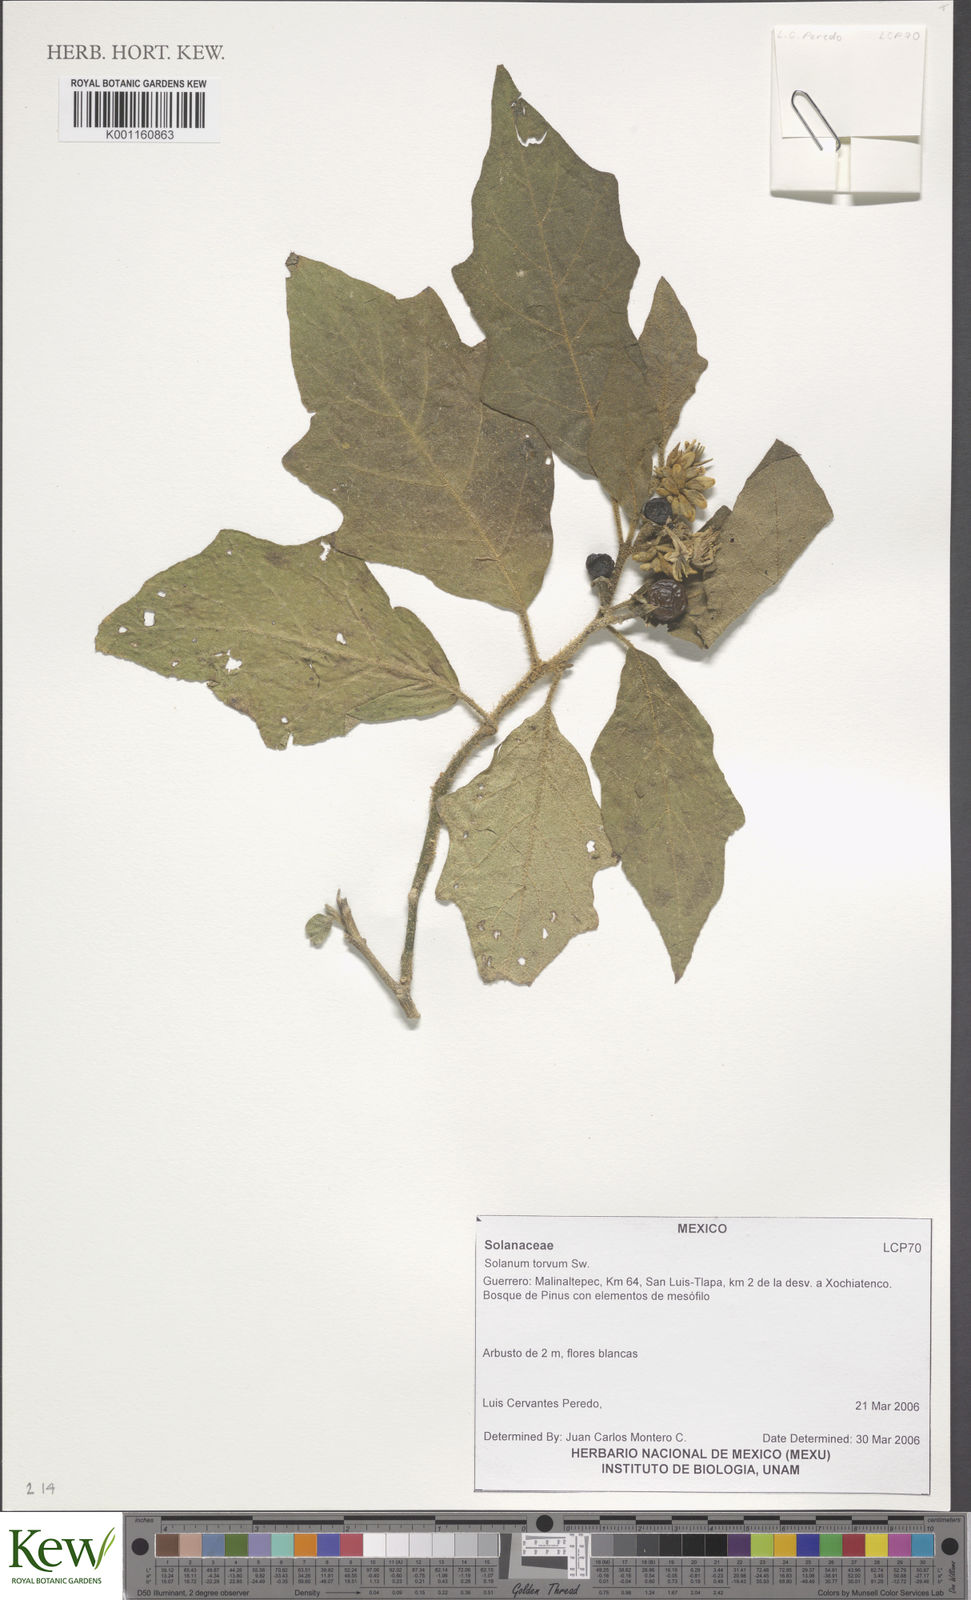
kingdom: Plantae
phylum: Tracheophyta
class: Magnoliopsida
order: Solanales
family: Solanaceae
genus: Solanum
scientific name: Solanum torvum
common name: Turkey berry
